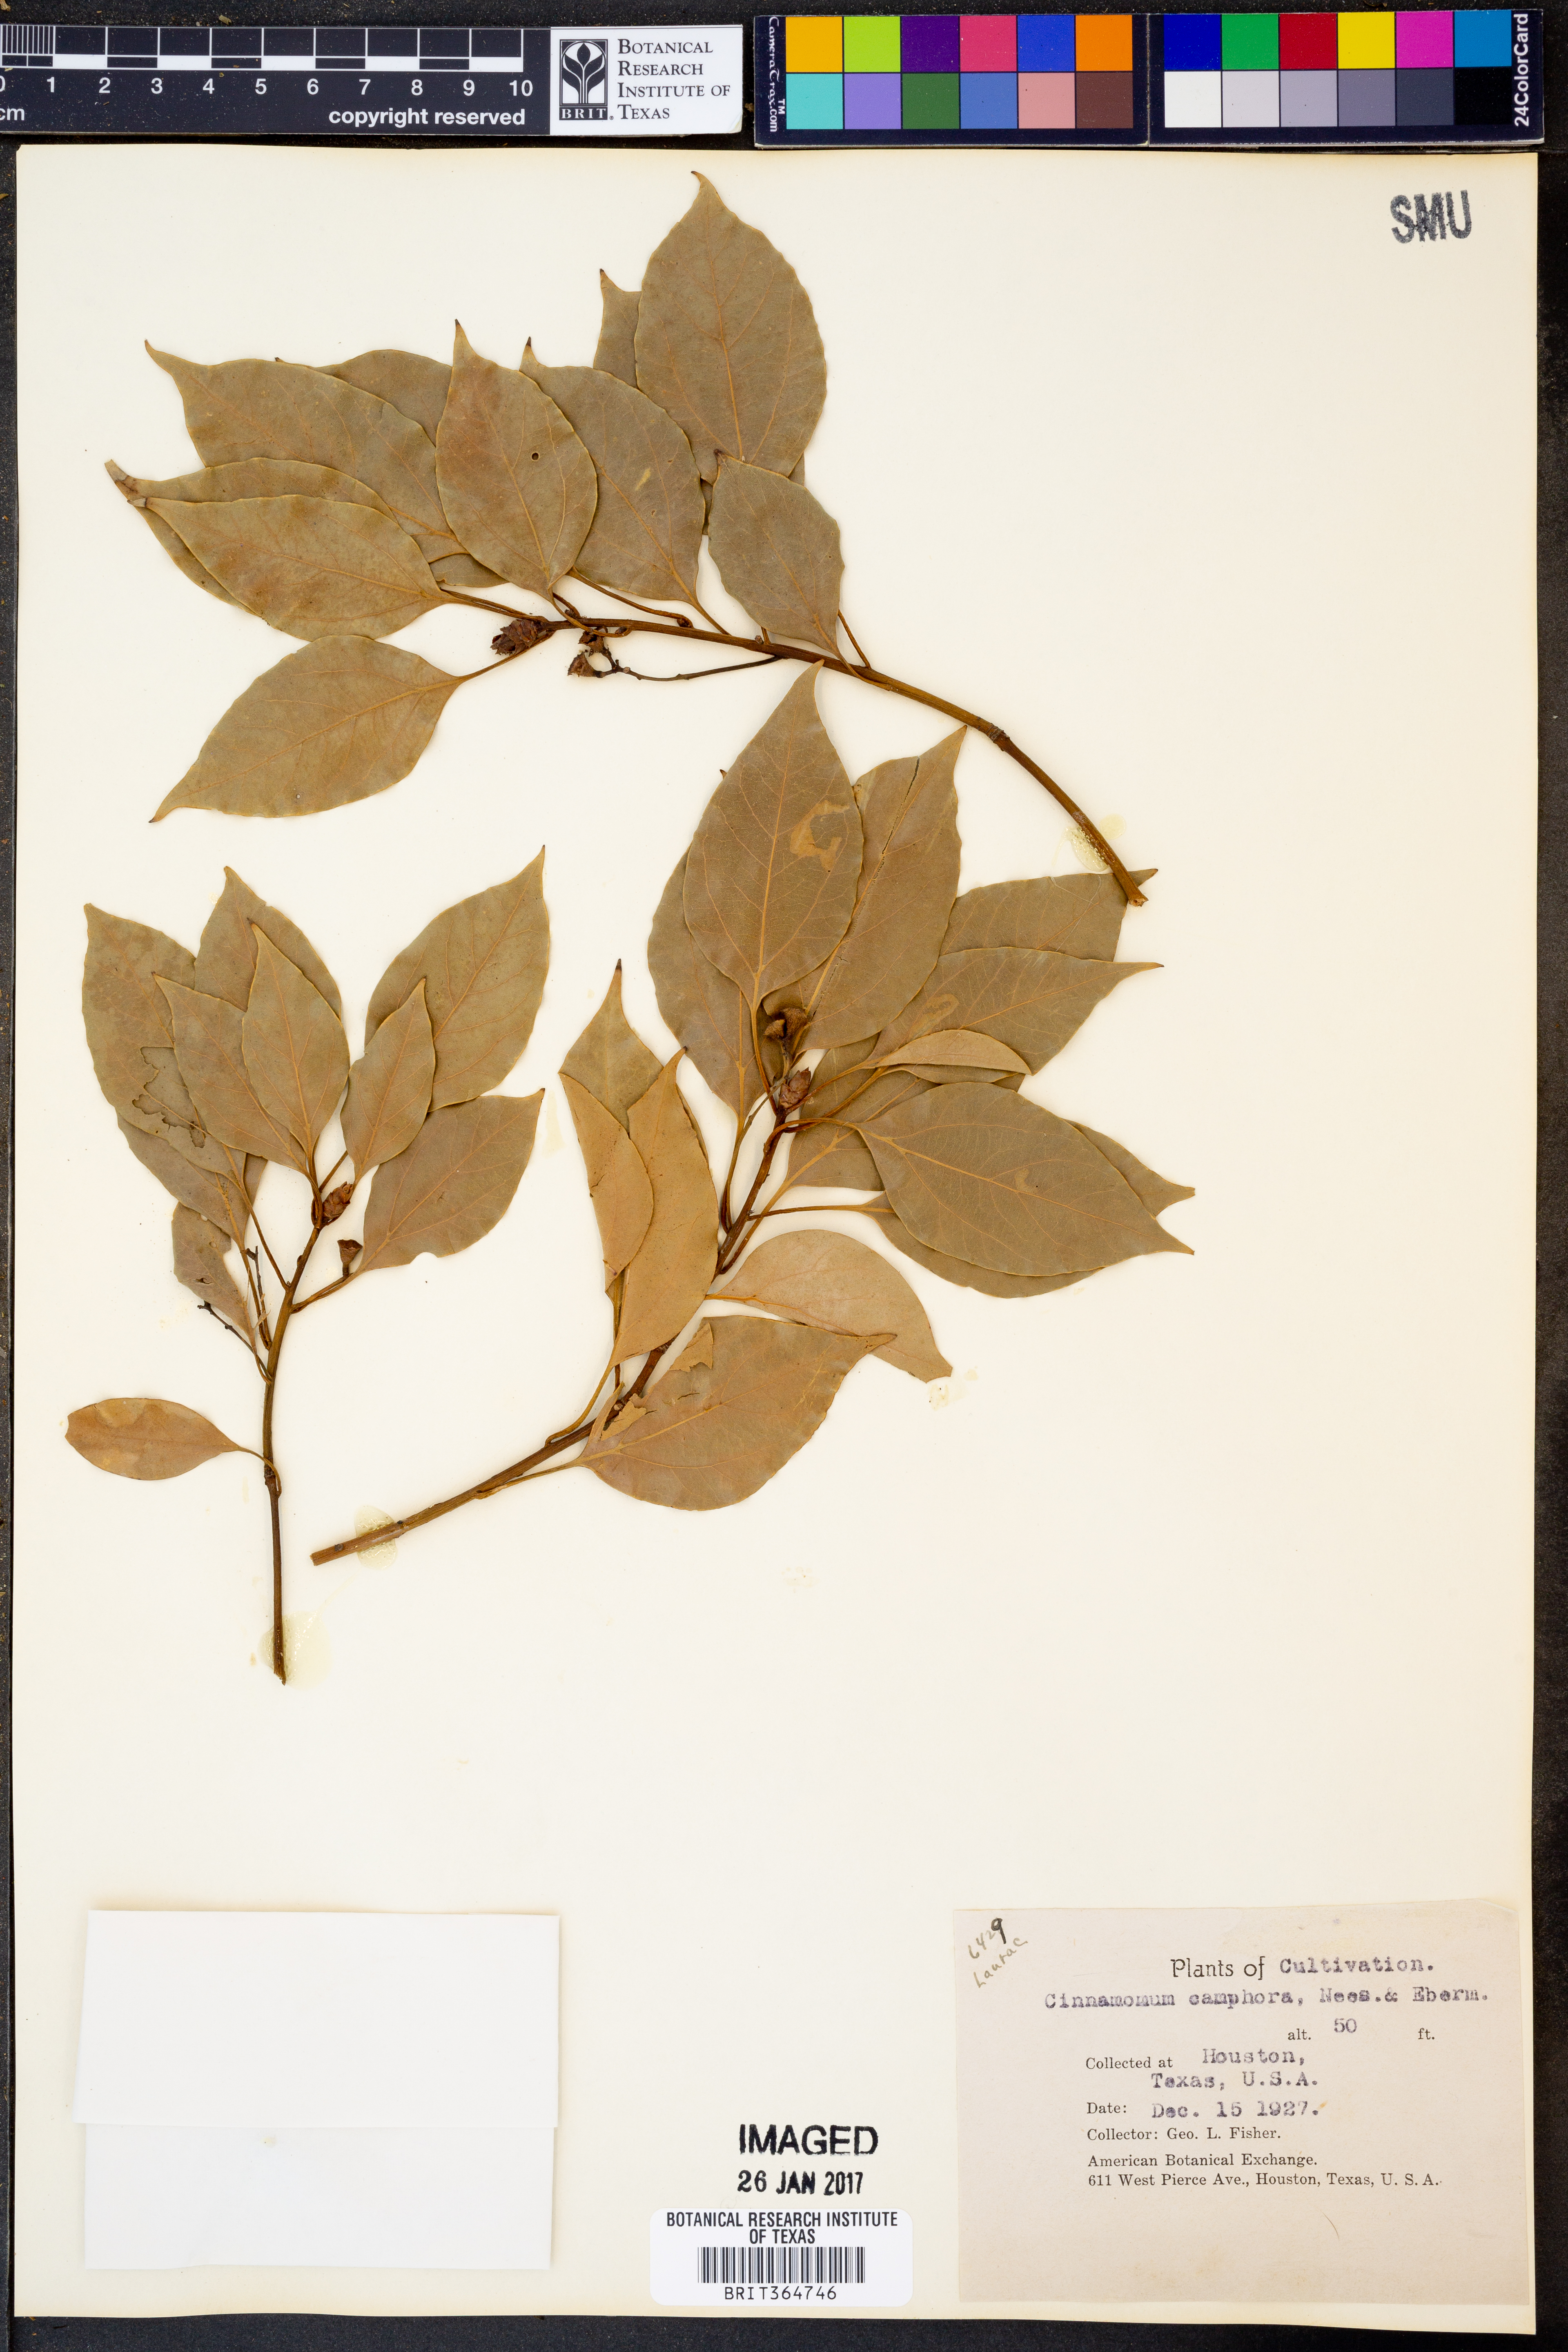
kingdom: Plantae
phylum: Tracheophyta
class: Magnoliopsida
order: Laurales
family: Lauraceae
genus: Cinnamomum
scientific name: Cinnamomum camphora
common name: Camphortree
